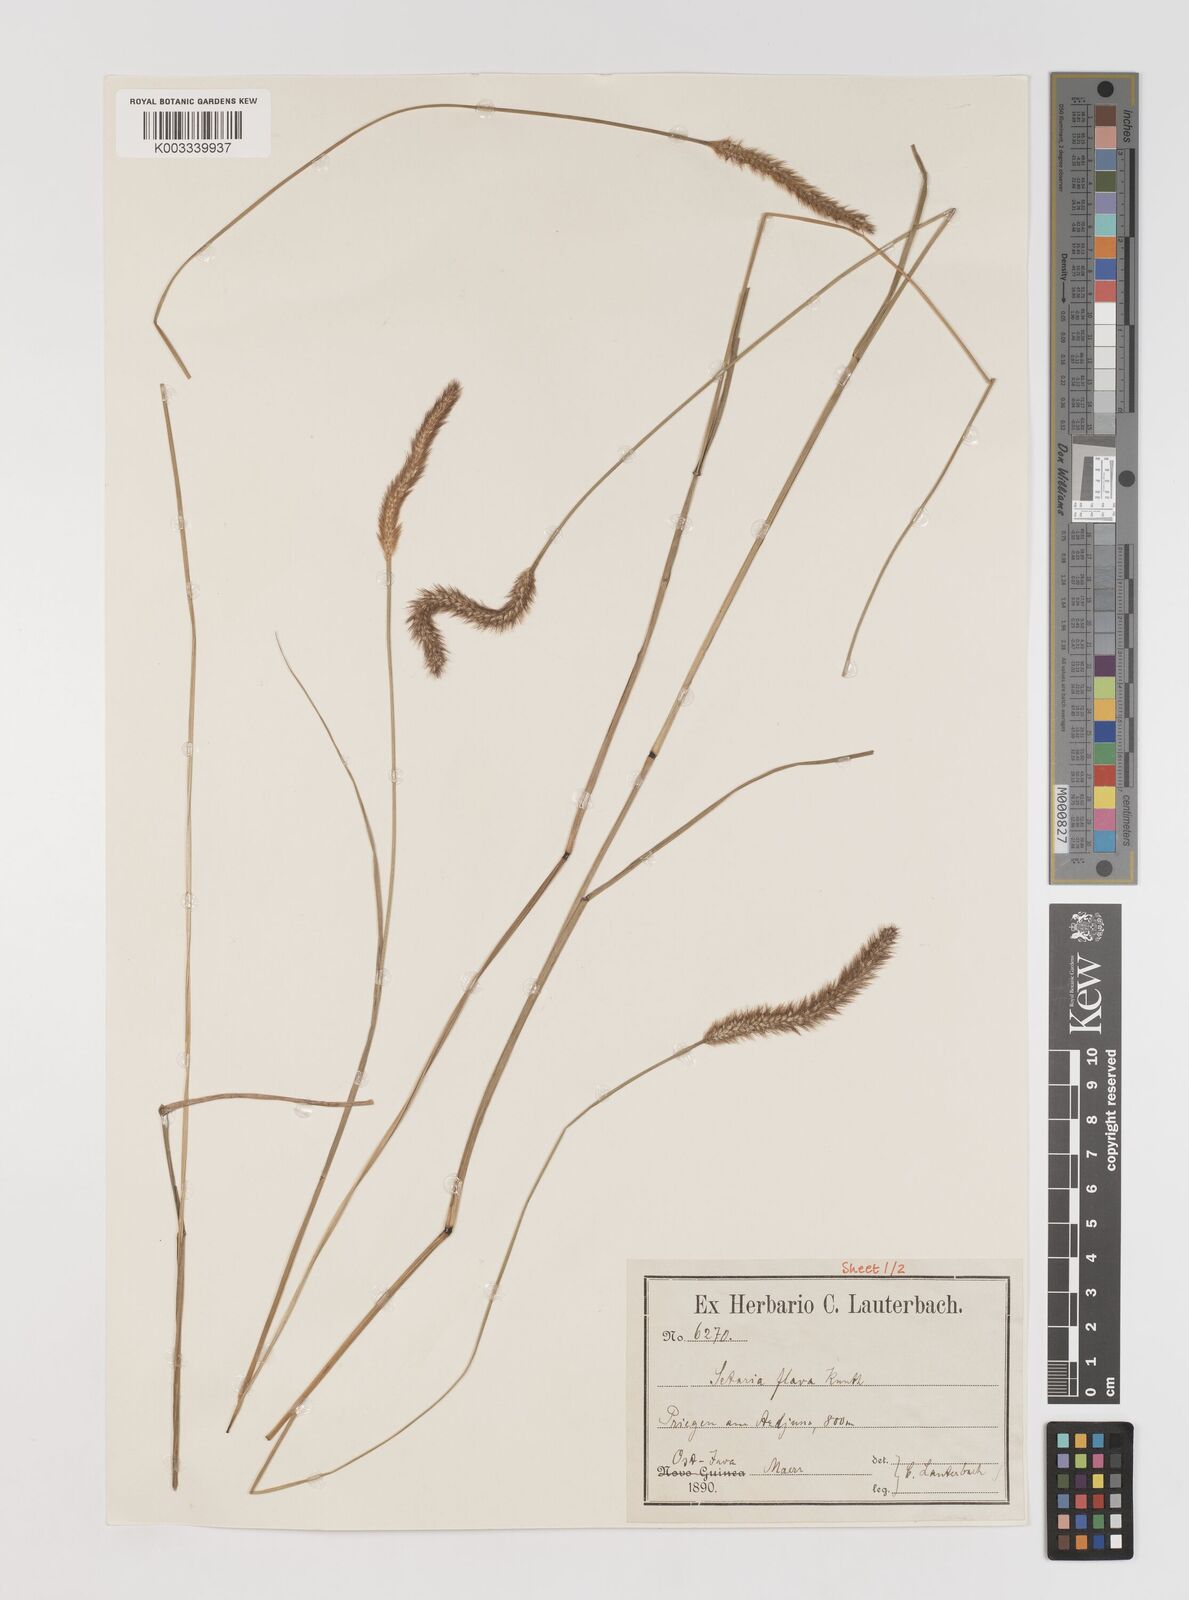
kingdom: Plantae
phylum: Tracheophyta
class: Liliopsida
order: Poales
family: Poaceae
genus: Setaria
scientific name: Setaria parviflora
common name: Knotroot bristle-grass
